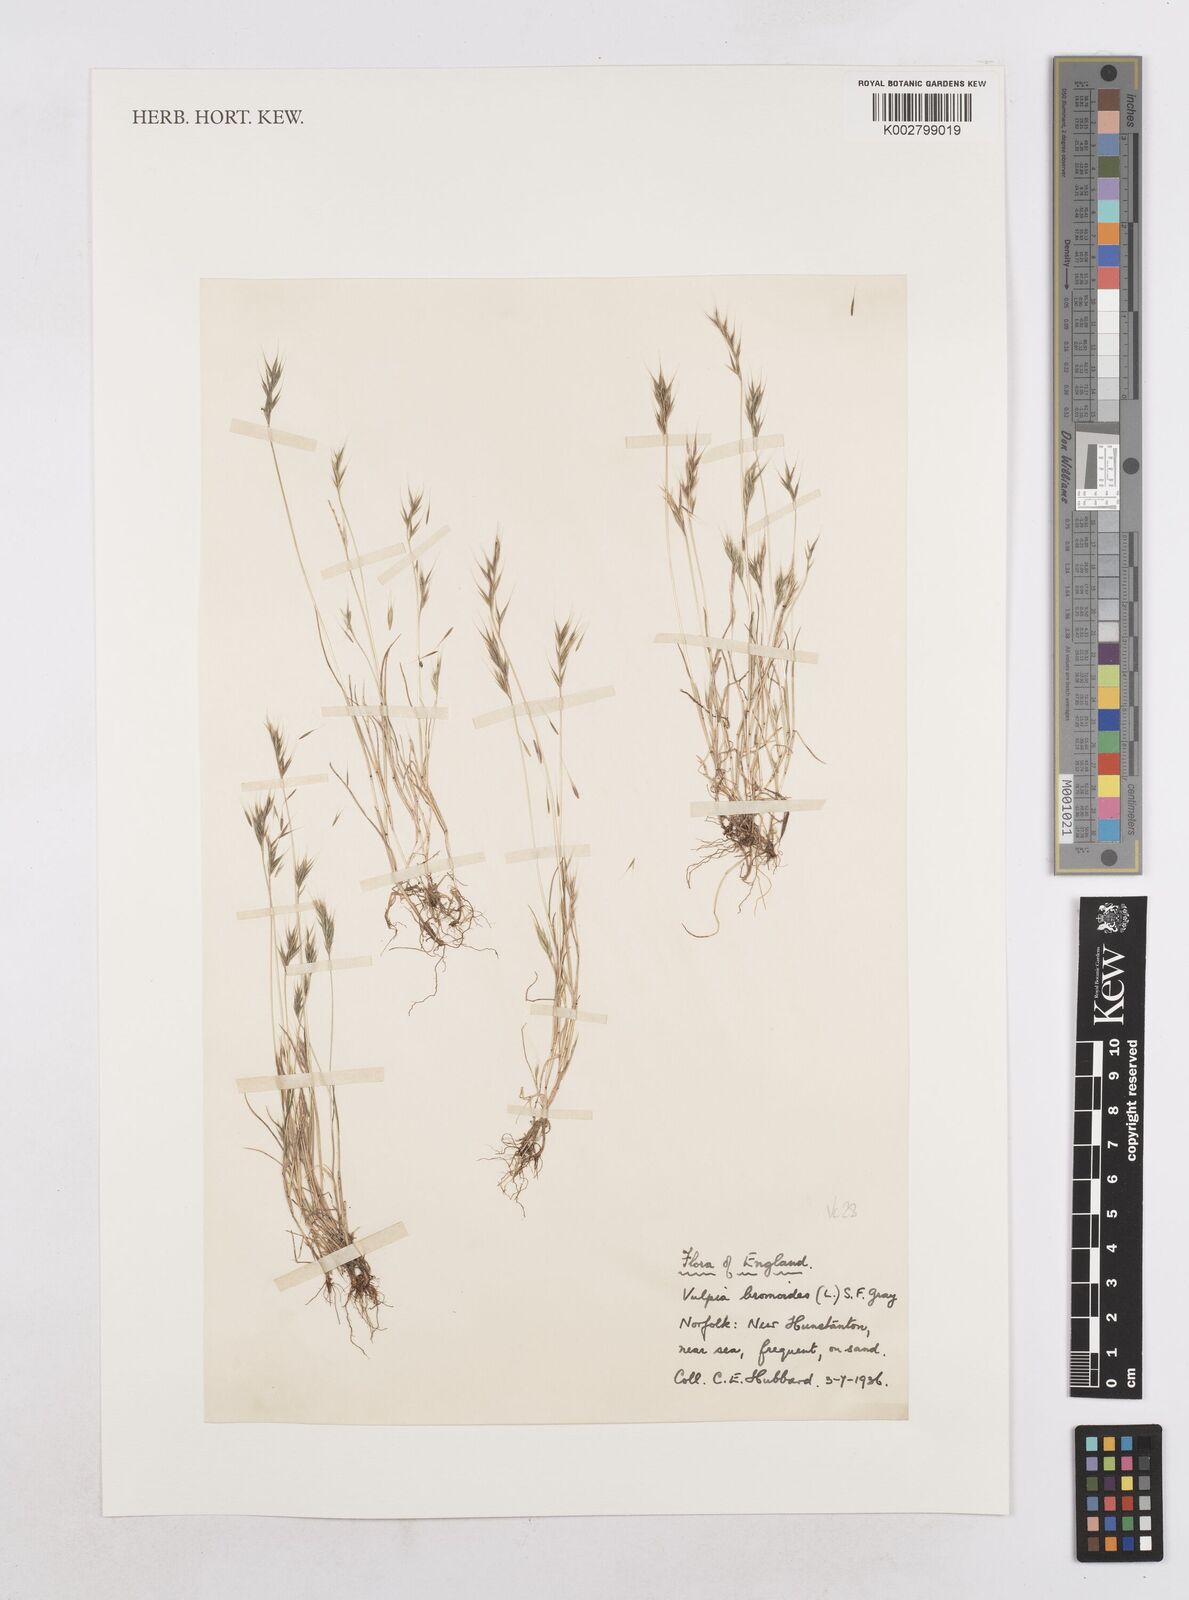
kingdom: Plantae
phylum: Tracheophyta
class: Liliopsida
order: Poales
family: Poaceae
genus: Festuca
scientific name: Festuca bromoides
